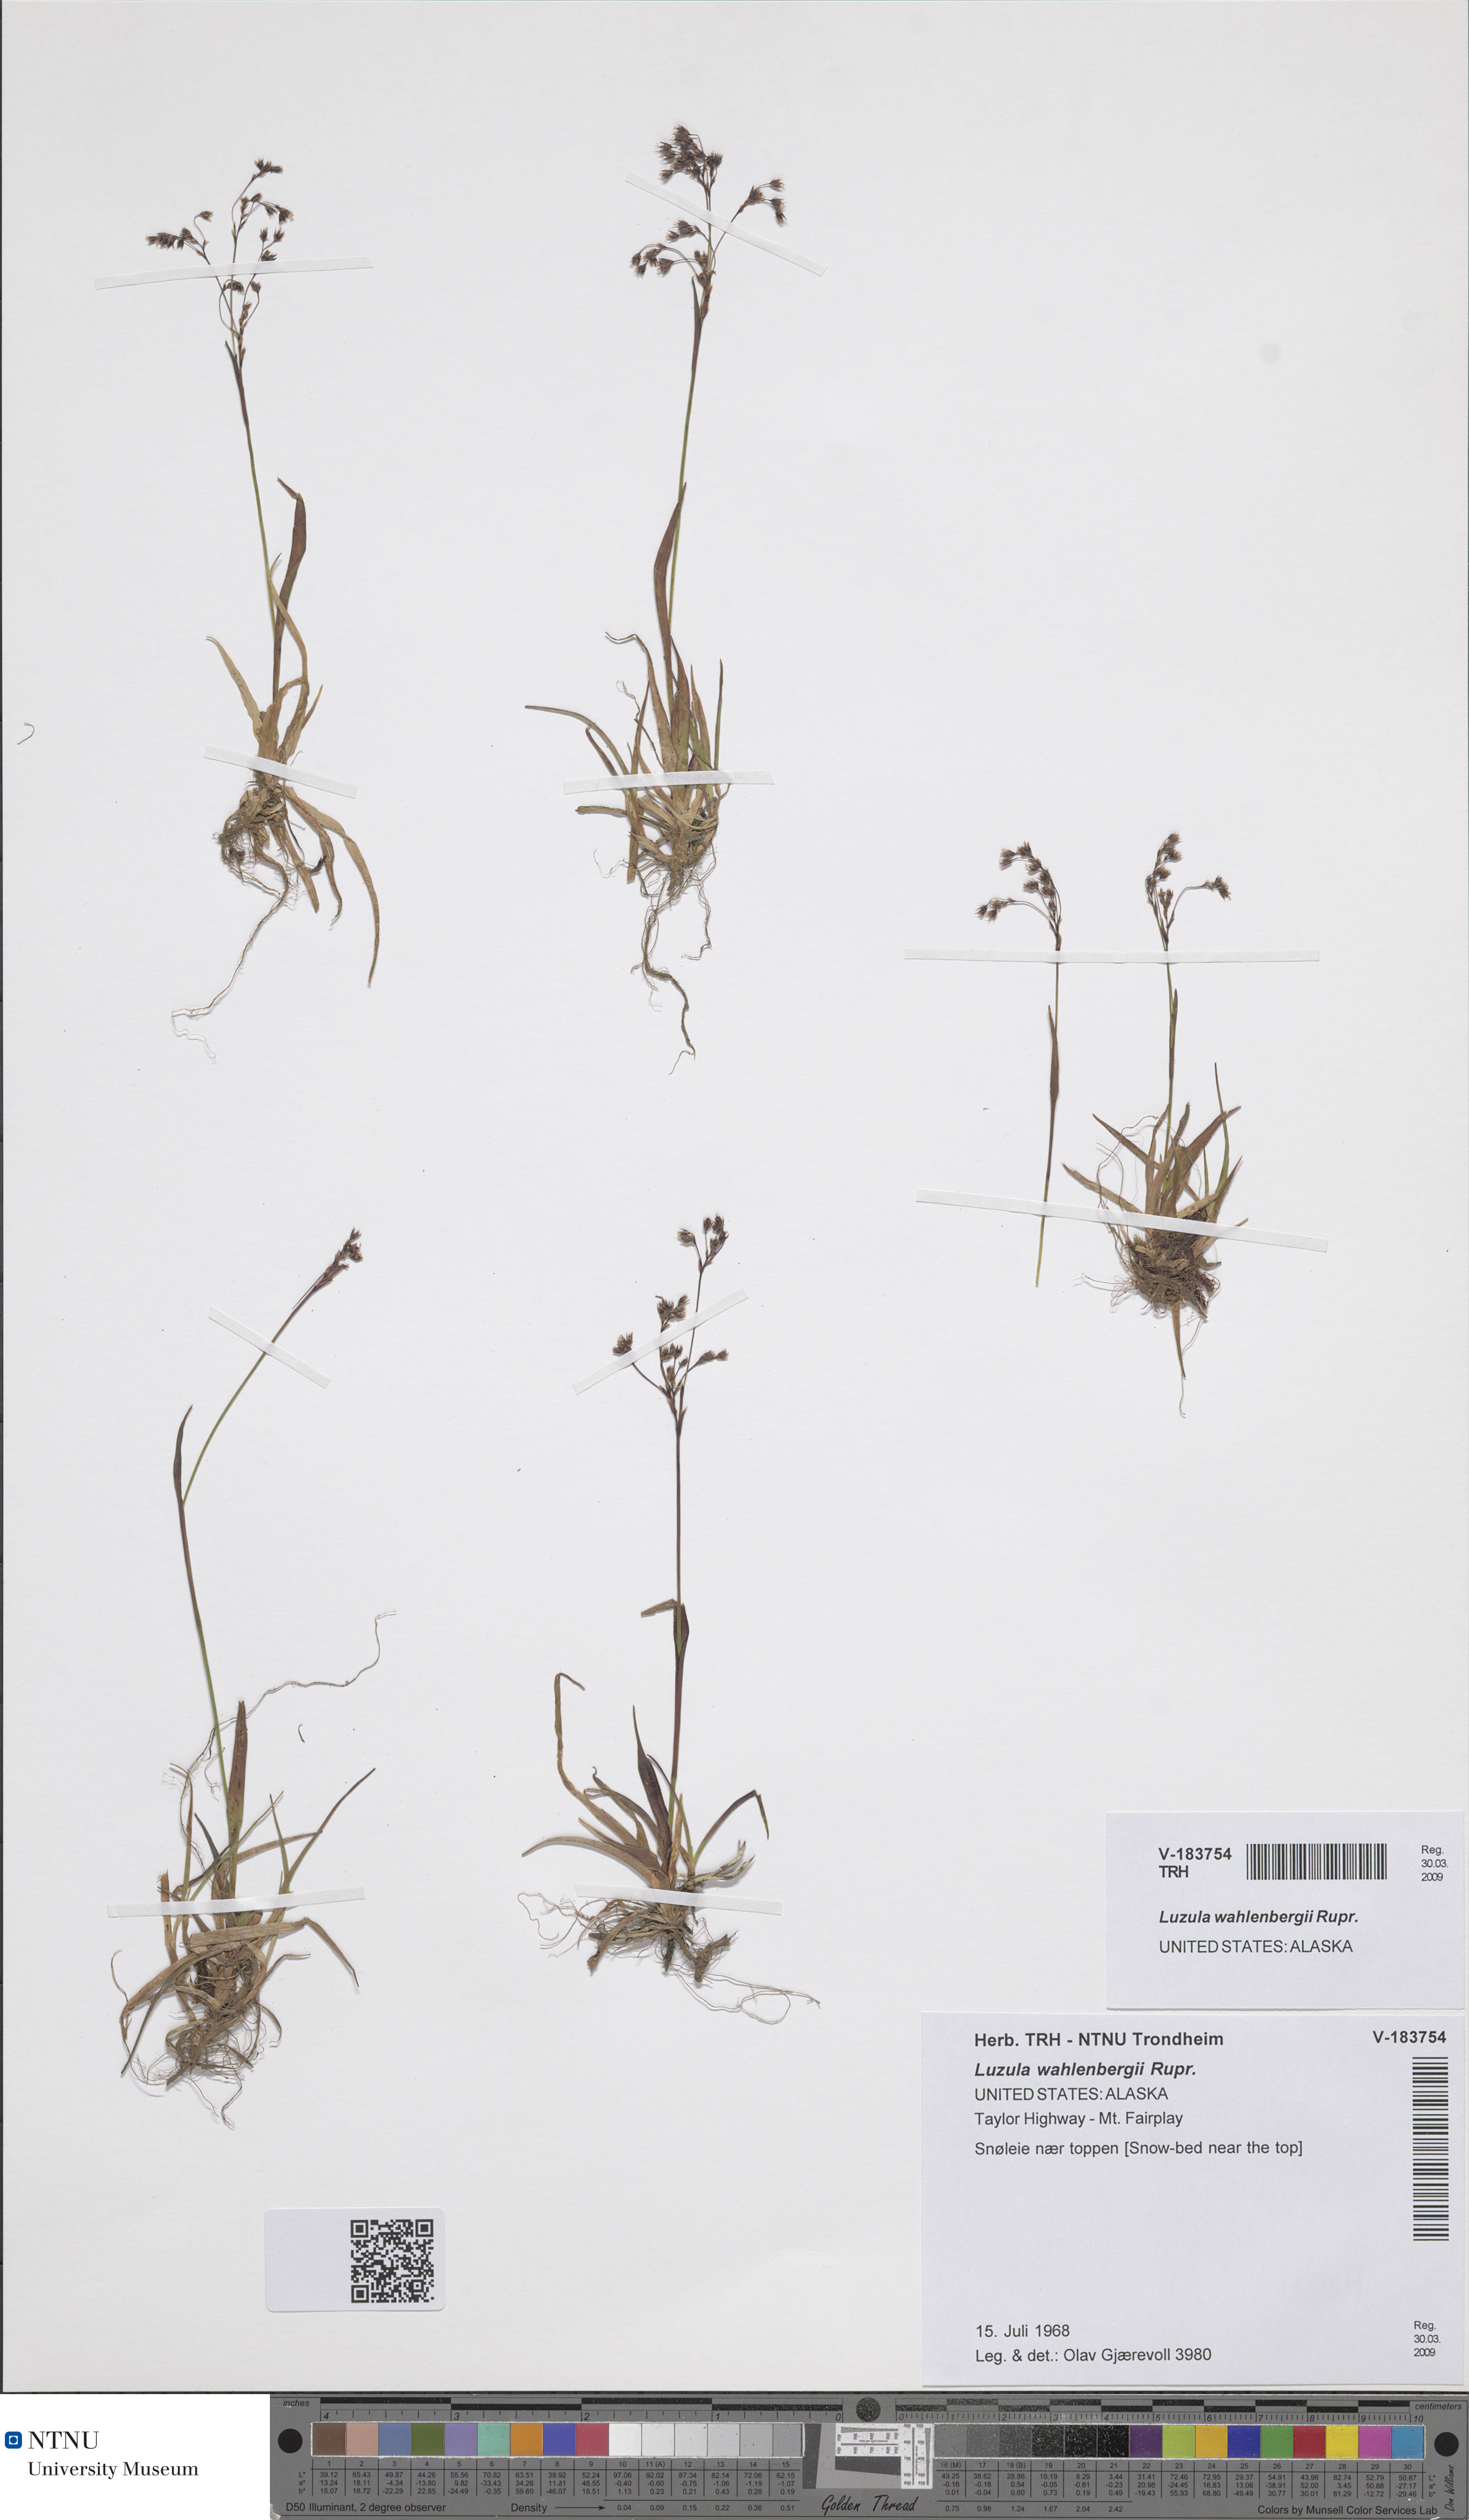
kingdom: Plantae
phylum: Tracheophyta
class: Liliopsida
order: Poales
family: Juncaceae
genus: Luzula
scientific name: Luzula wahlenbergii
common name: Wahlenberg's wood-rush
